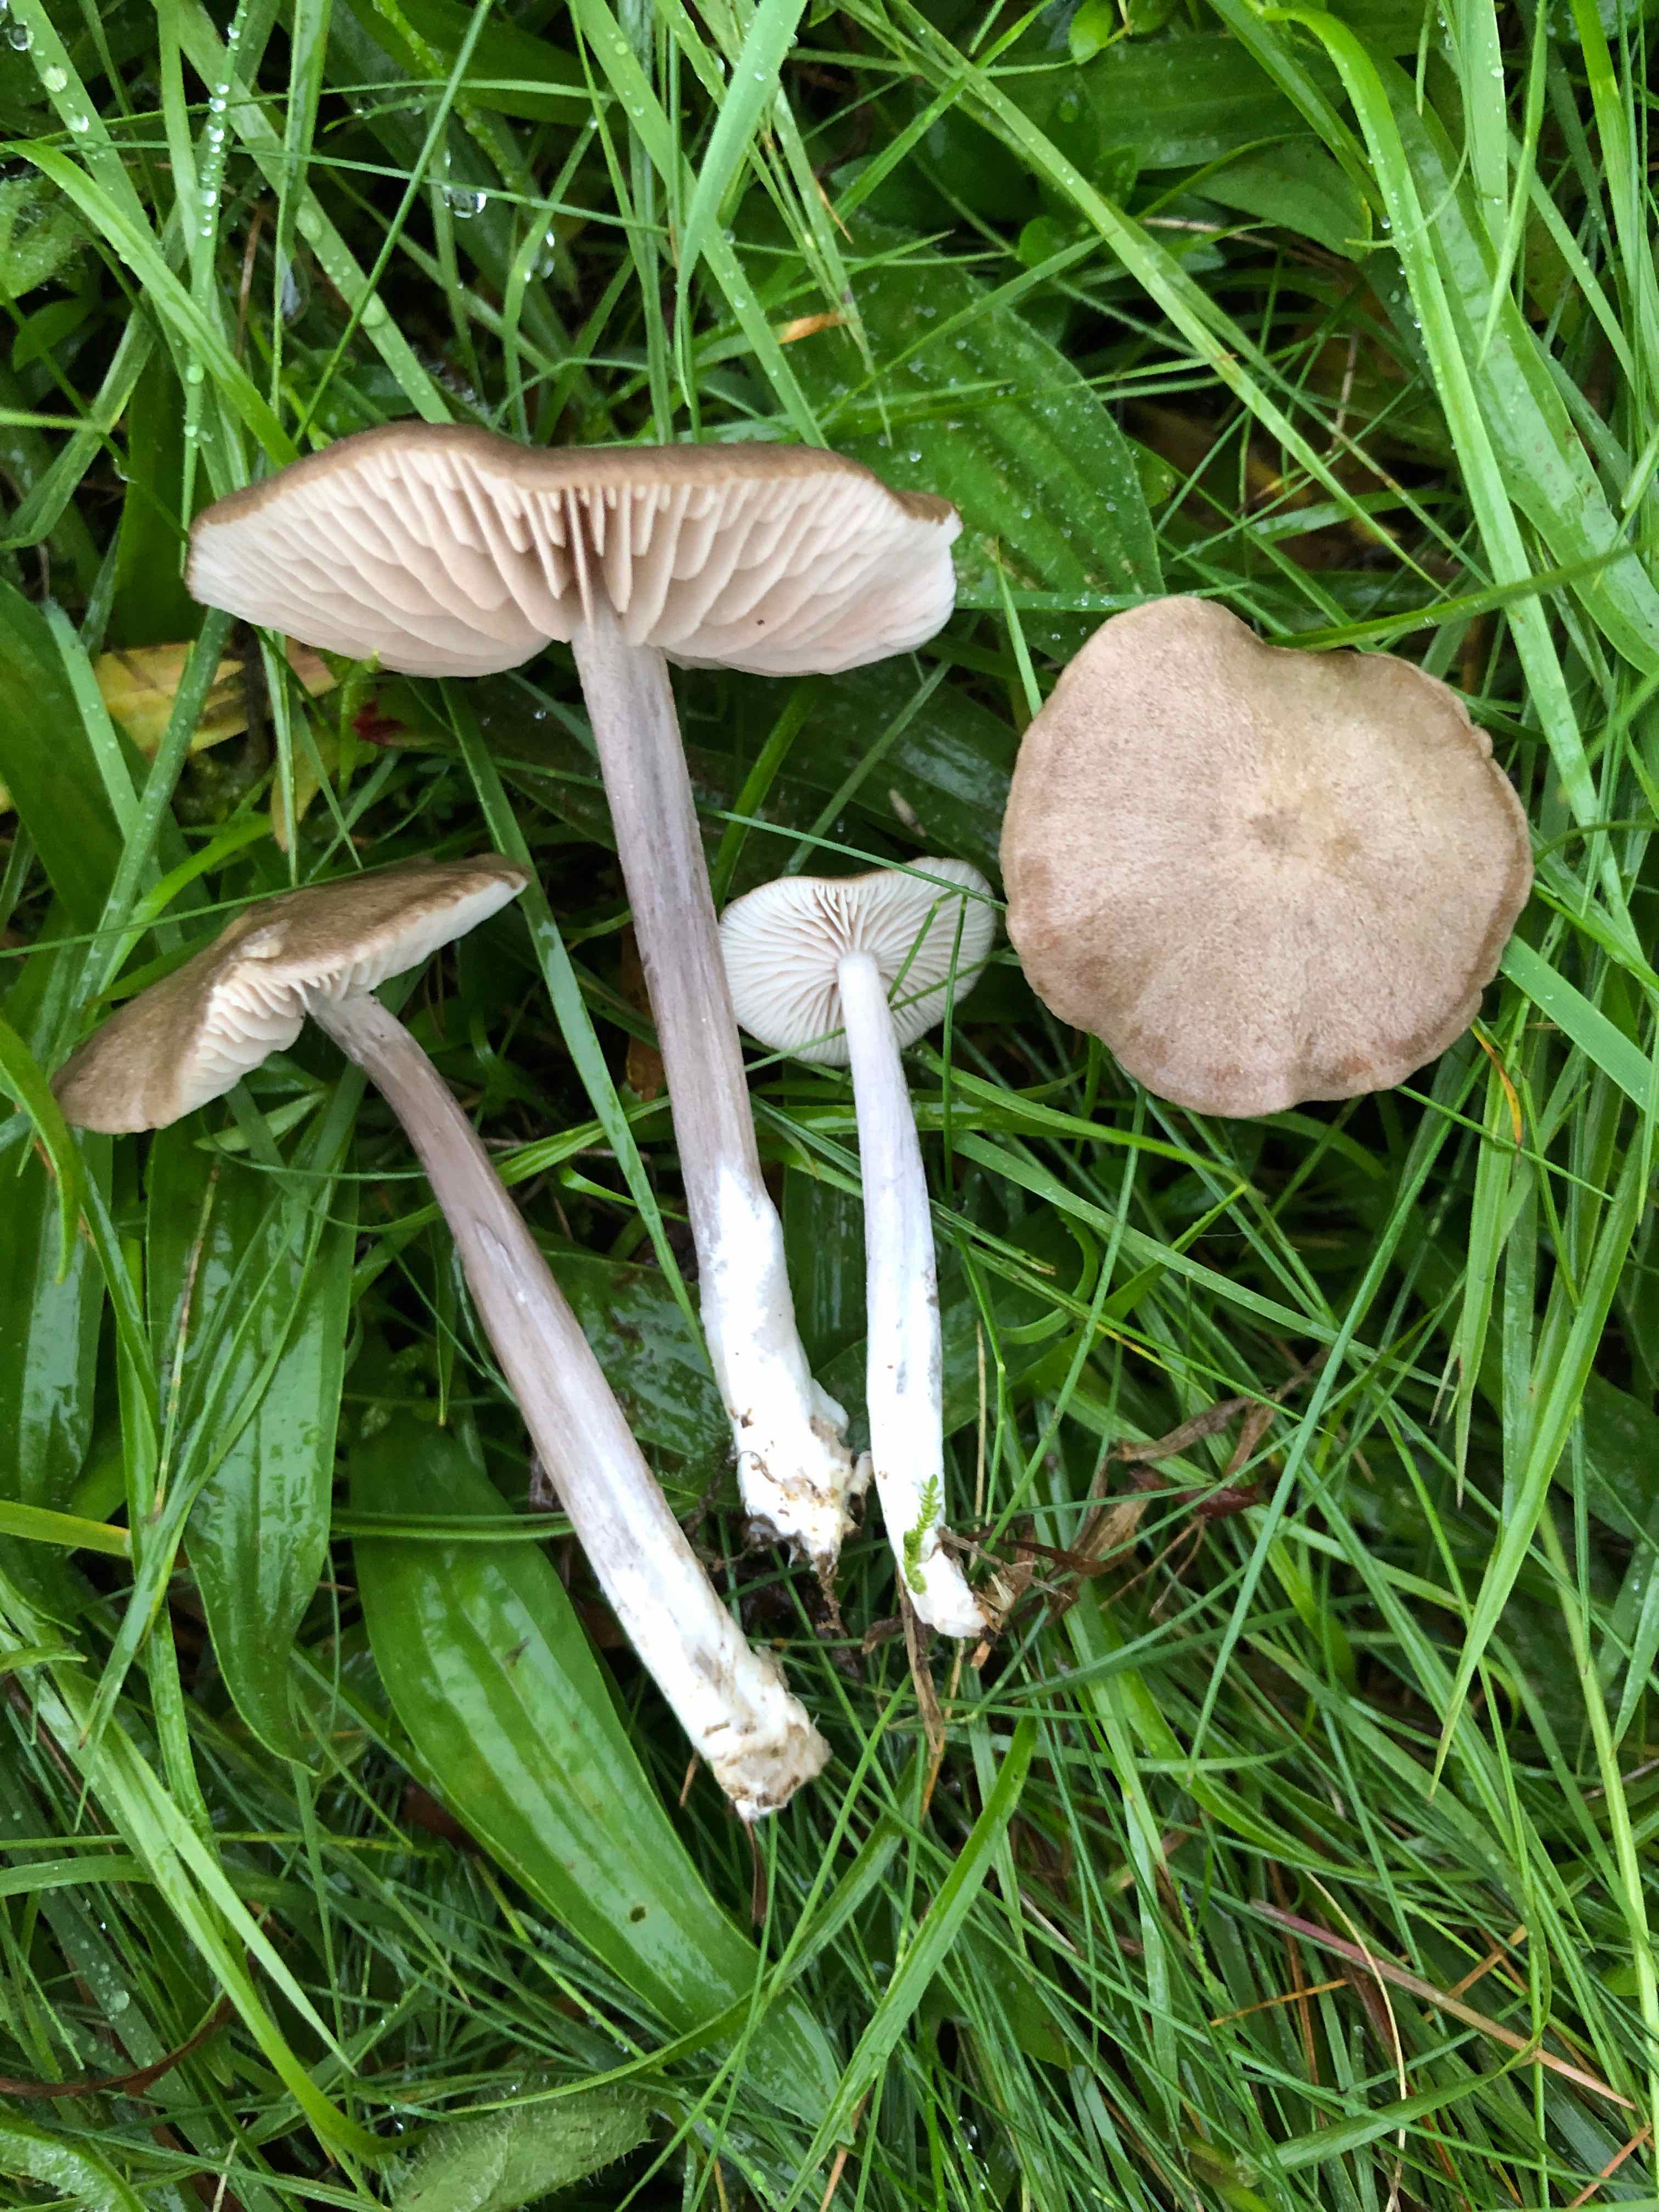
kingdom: Fungi
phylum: Basidiomycota
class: Agaricomycetes
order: Agaricales
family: Entolomataceae
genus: Entoloma
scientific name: Entoloma griseocyaneum
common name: gråblå rødblad
